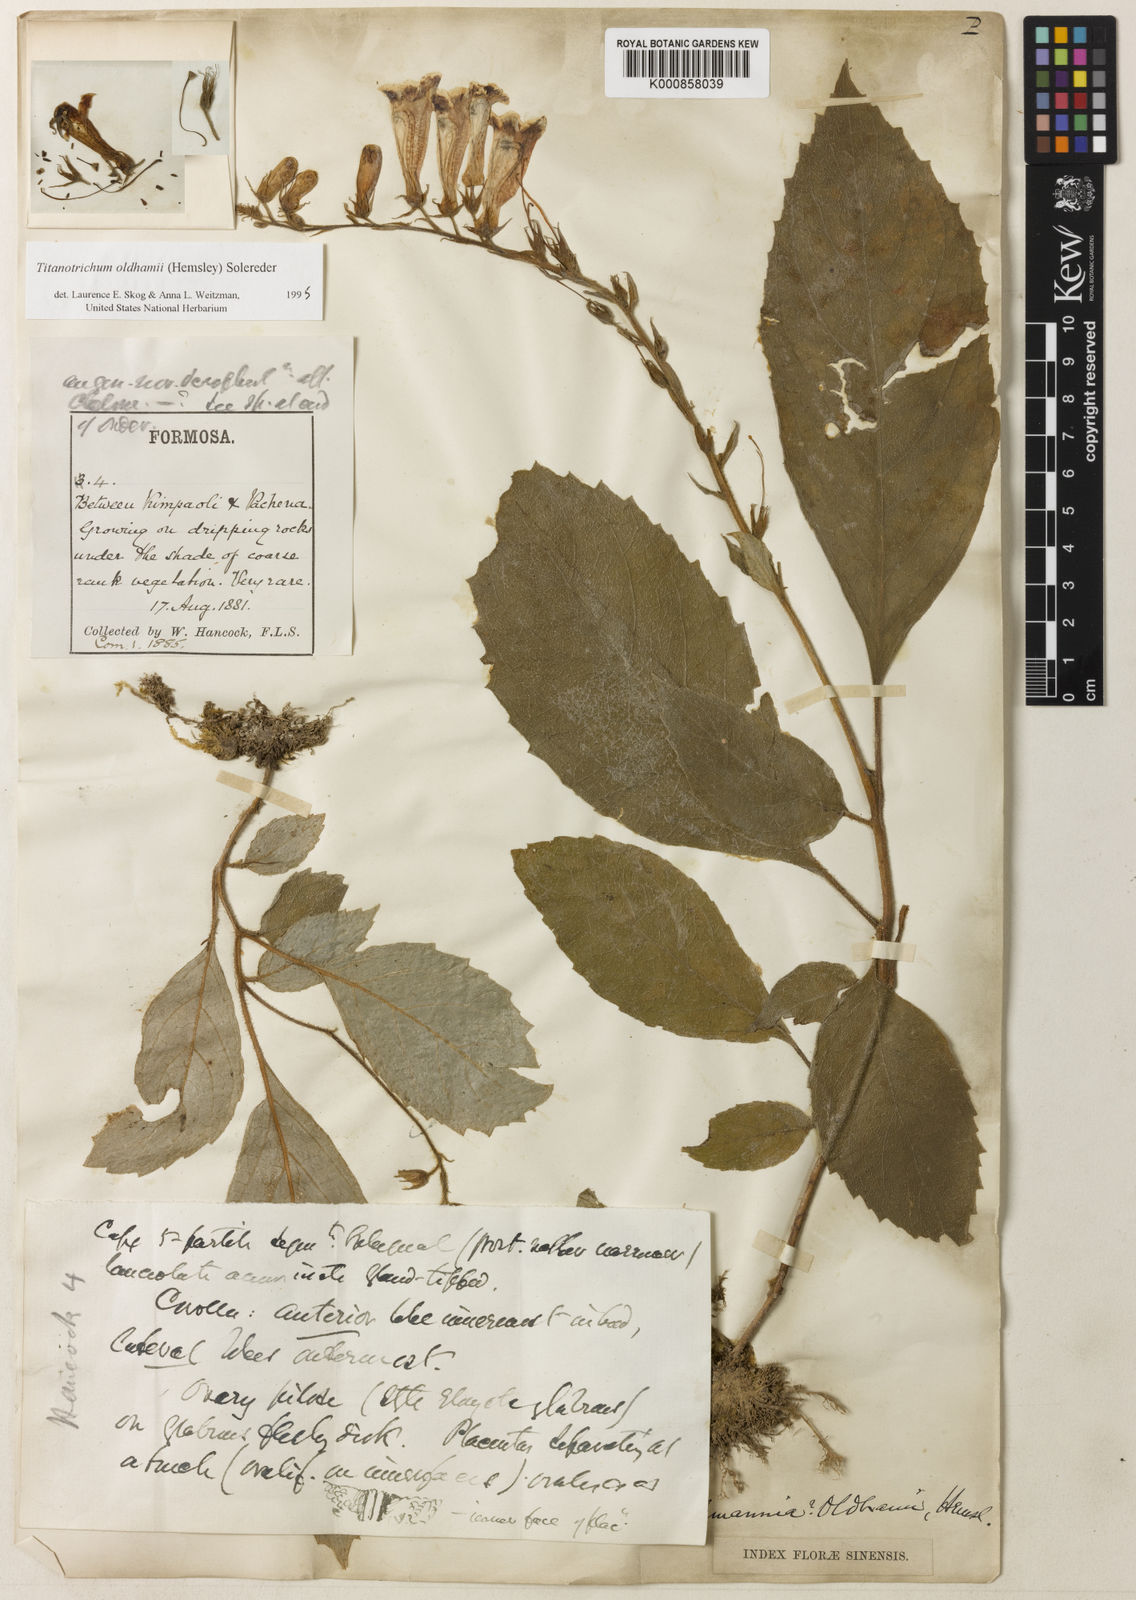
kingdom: Plantae
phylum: Tracheophyta
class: Magnoliopsida
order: Lamiales
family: Gesneriaceae
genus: Titanotrichum
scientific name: Titanotrichum oldhamii
